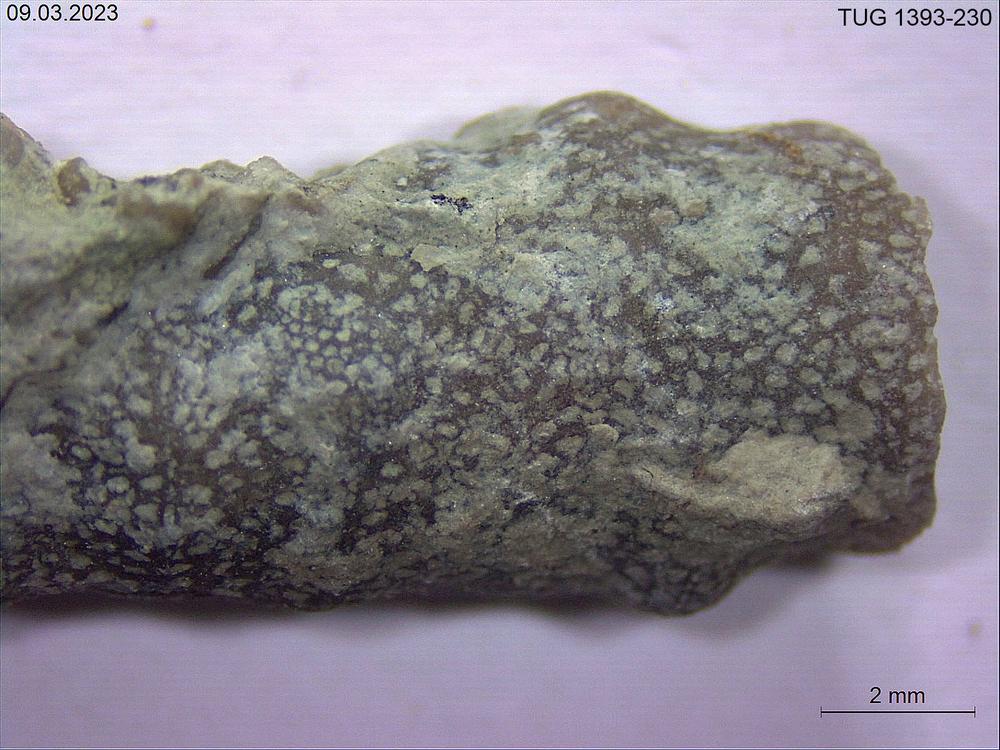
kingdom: Animalia
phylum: Bryozoa
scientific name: Bryozoa
